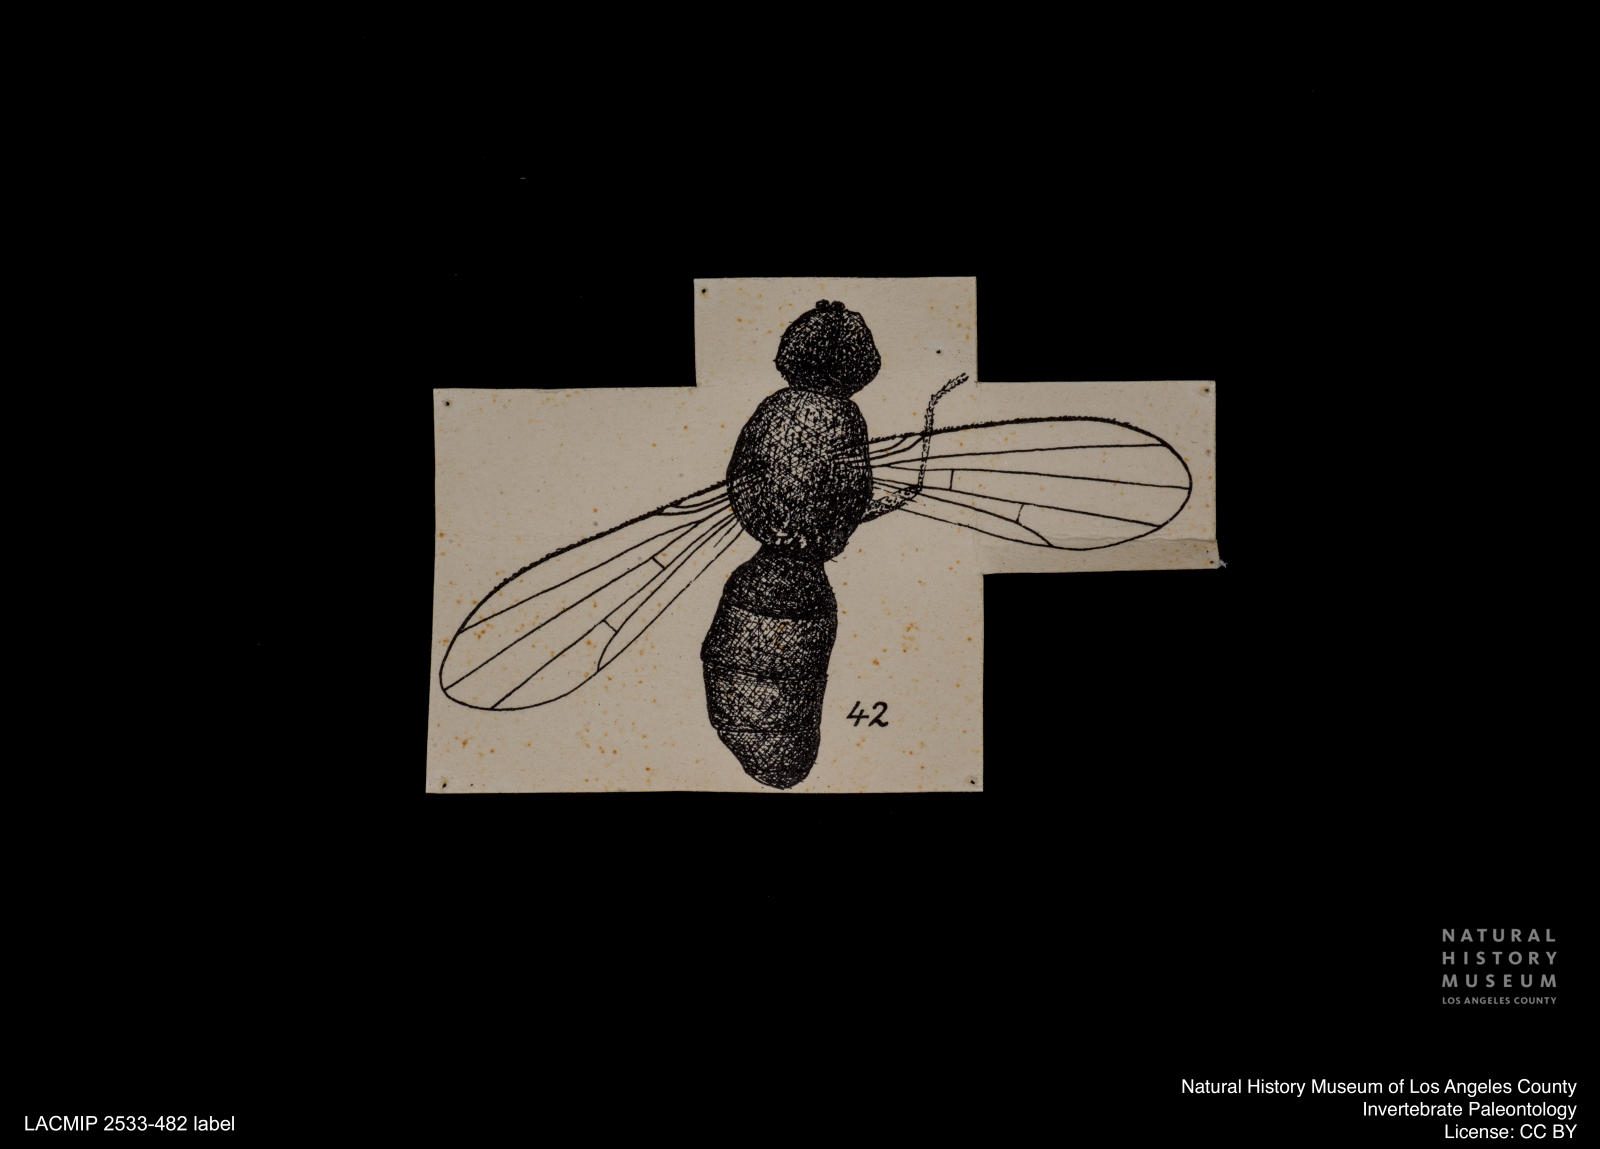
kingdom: Animalia
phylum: Arthropoda
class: Insecta
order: Diptera
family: Clusiidae
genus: Clusiodes
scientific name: Clusiodes petreficata
